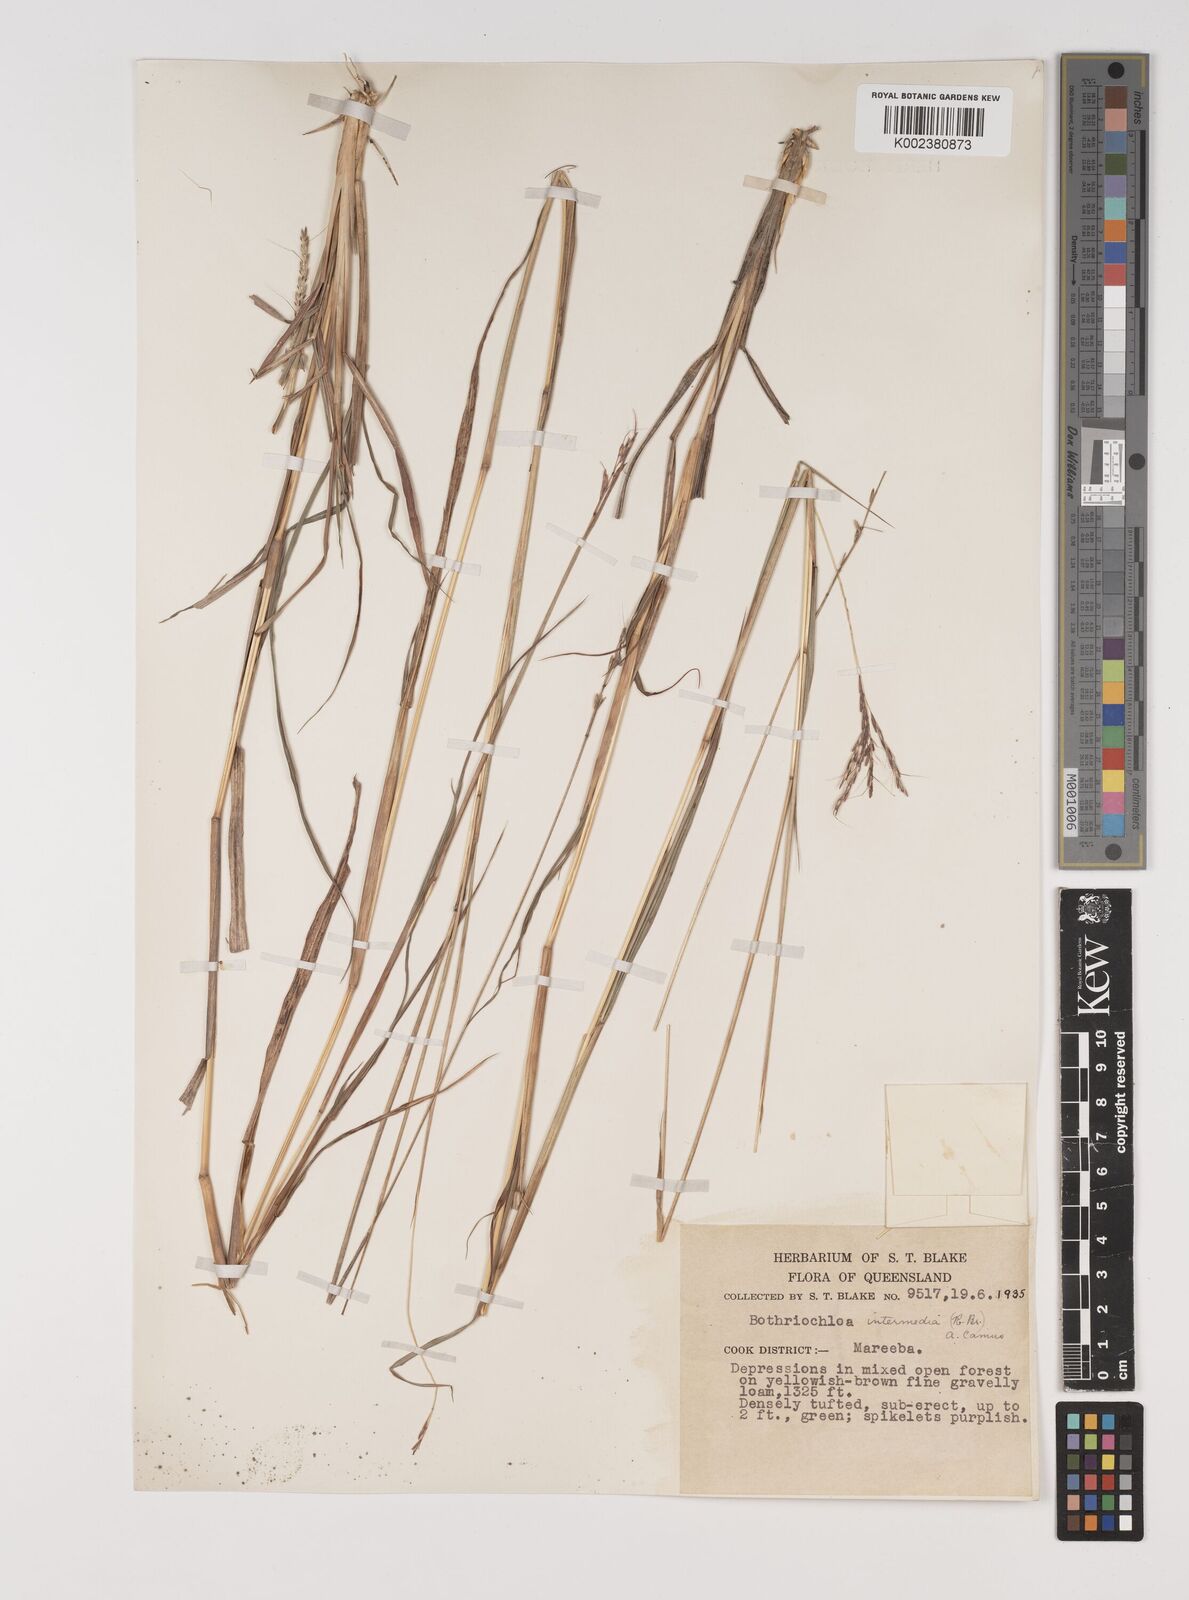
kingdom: Plantae
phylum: Tracheophyta
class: Liliopsida
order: Poales
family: Poaceae
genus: Bothriochloa
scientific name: Bothriochloa bladhii
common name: Caucasian bluestem
